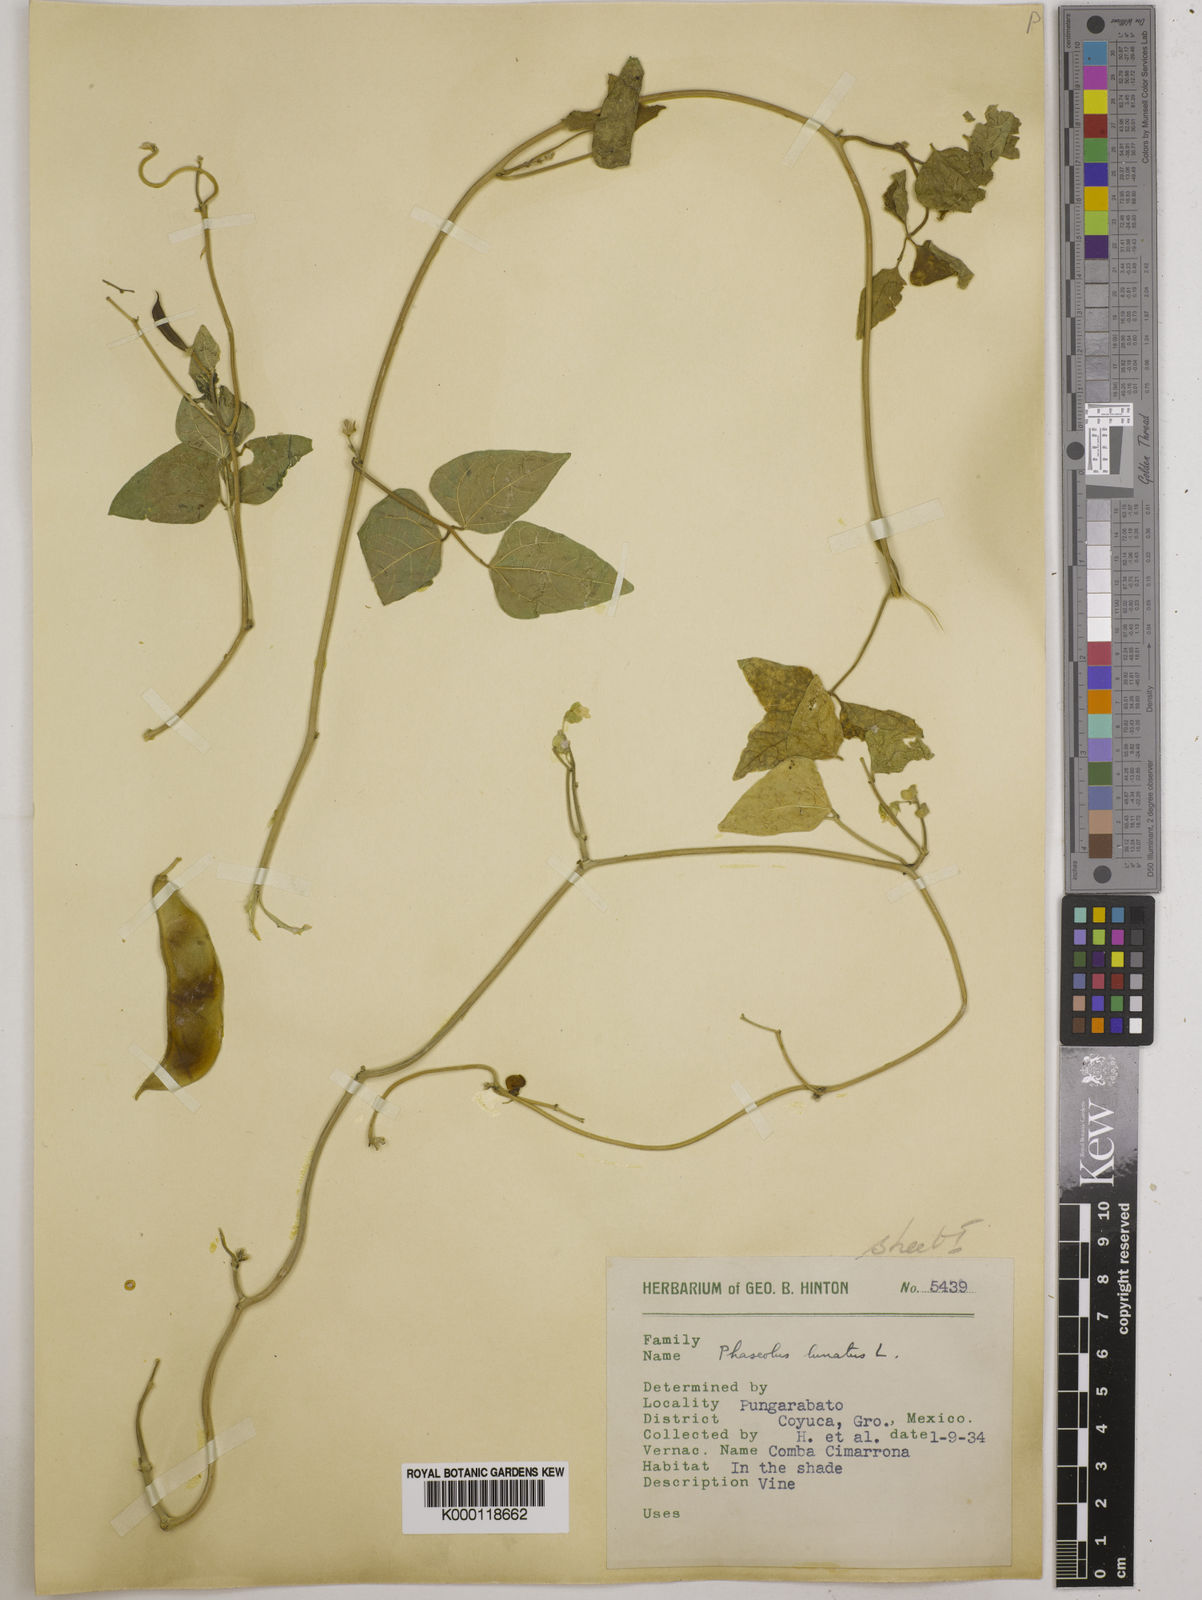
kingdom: Plantae
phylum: Tracheophyta
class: Magnoliopsida
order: Fabales
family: Fabaceae
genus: Phaseolus
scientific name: Phaseolus lunatus
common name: Sieva bean
